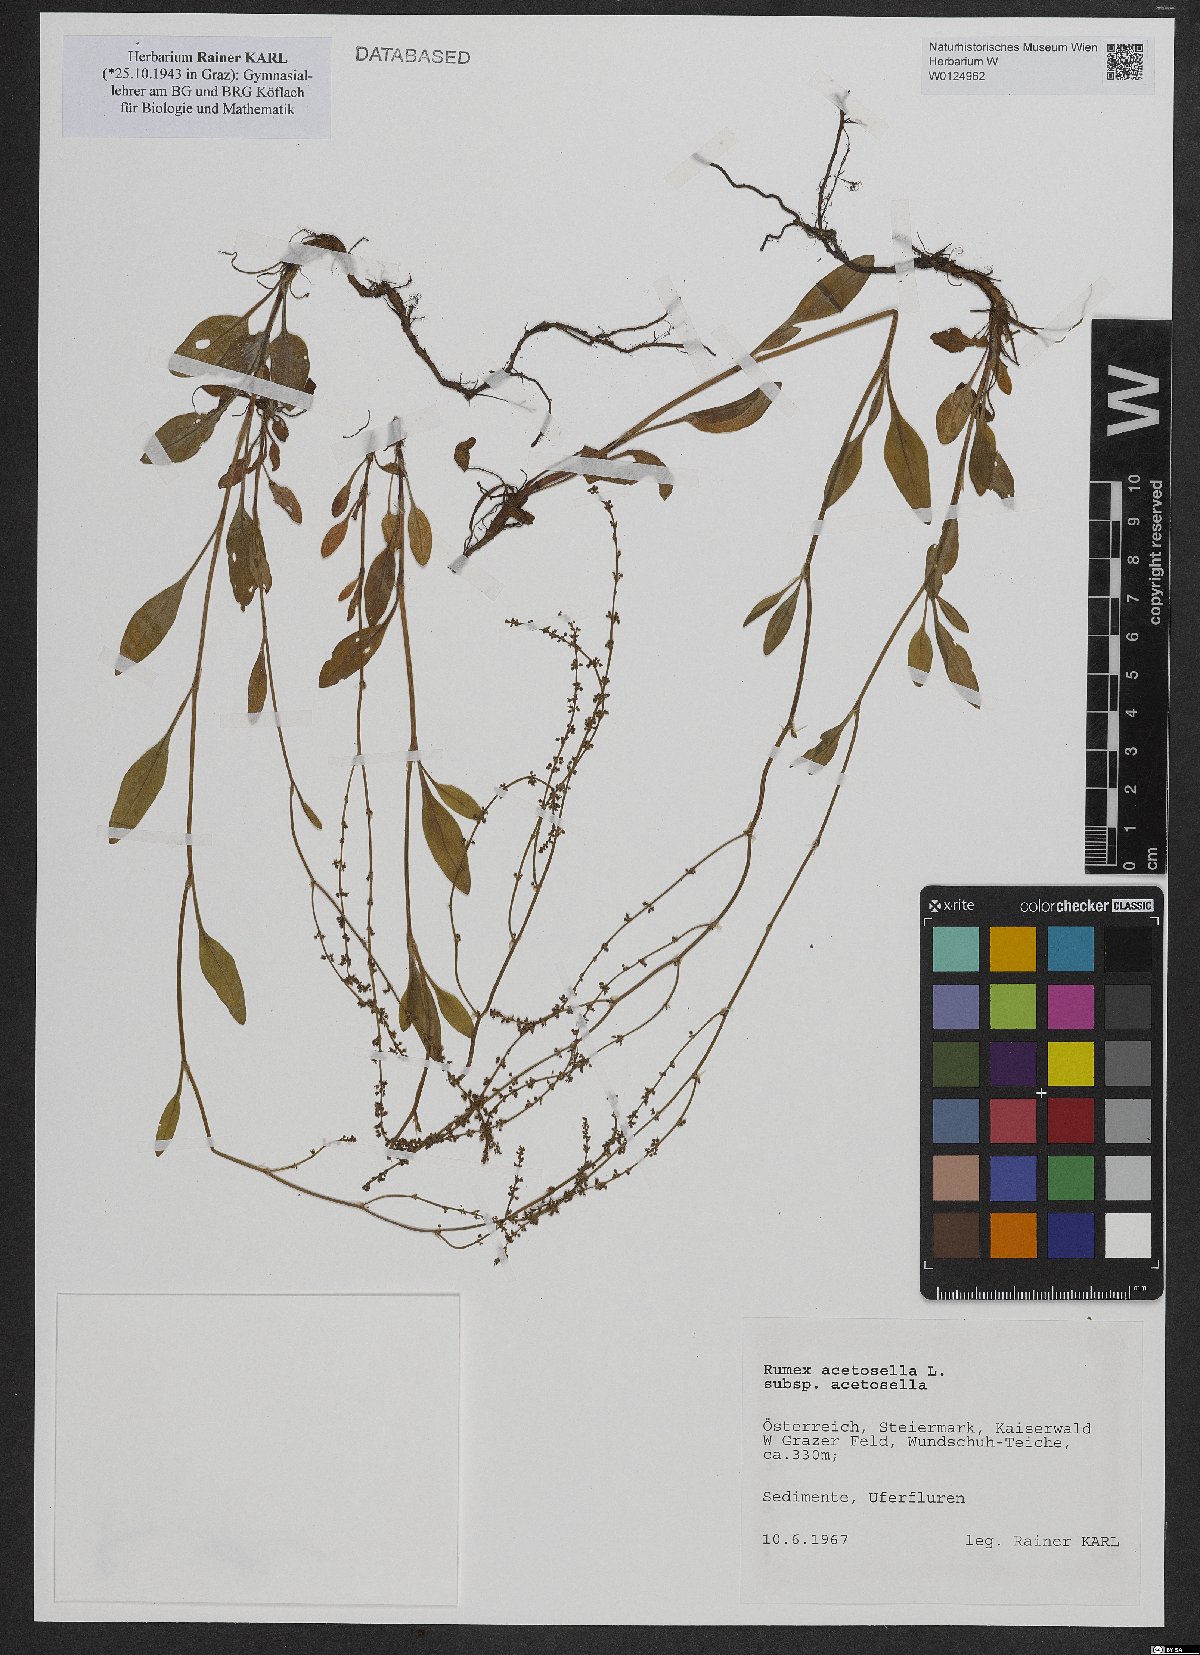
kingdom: Plantae
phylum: Tracheophyta
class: Magnoliopsida
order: Caryophyllales
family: Polygonaceae
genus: Rumex
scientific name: Rumex acetosella
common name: Common sheep sorrel
